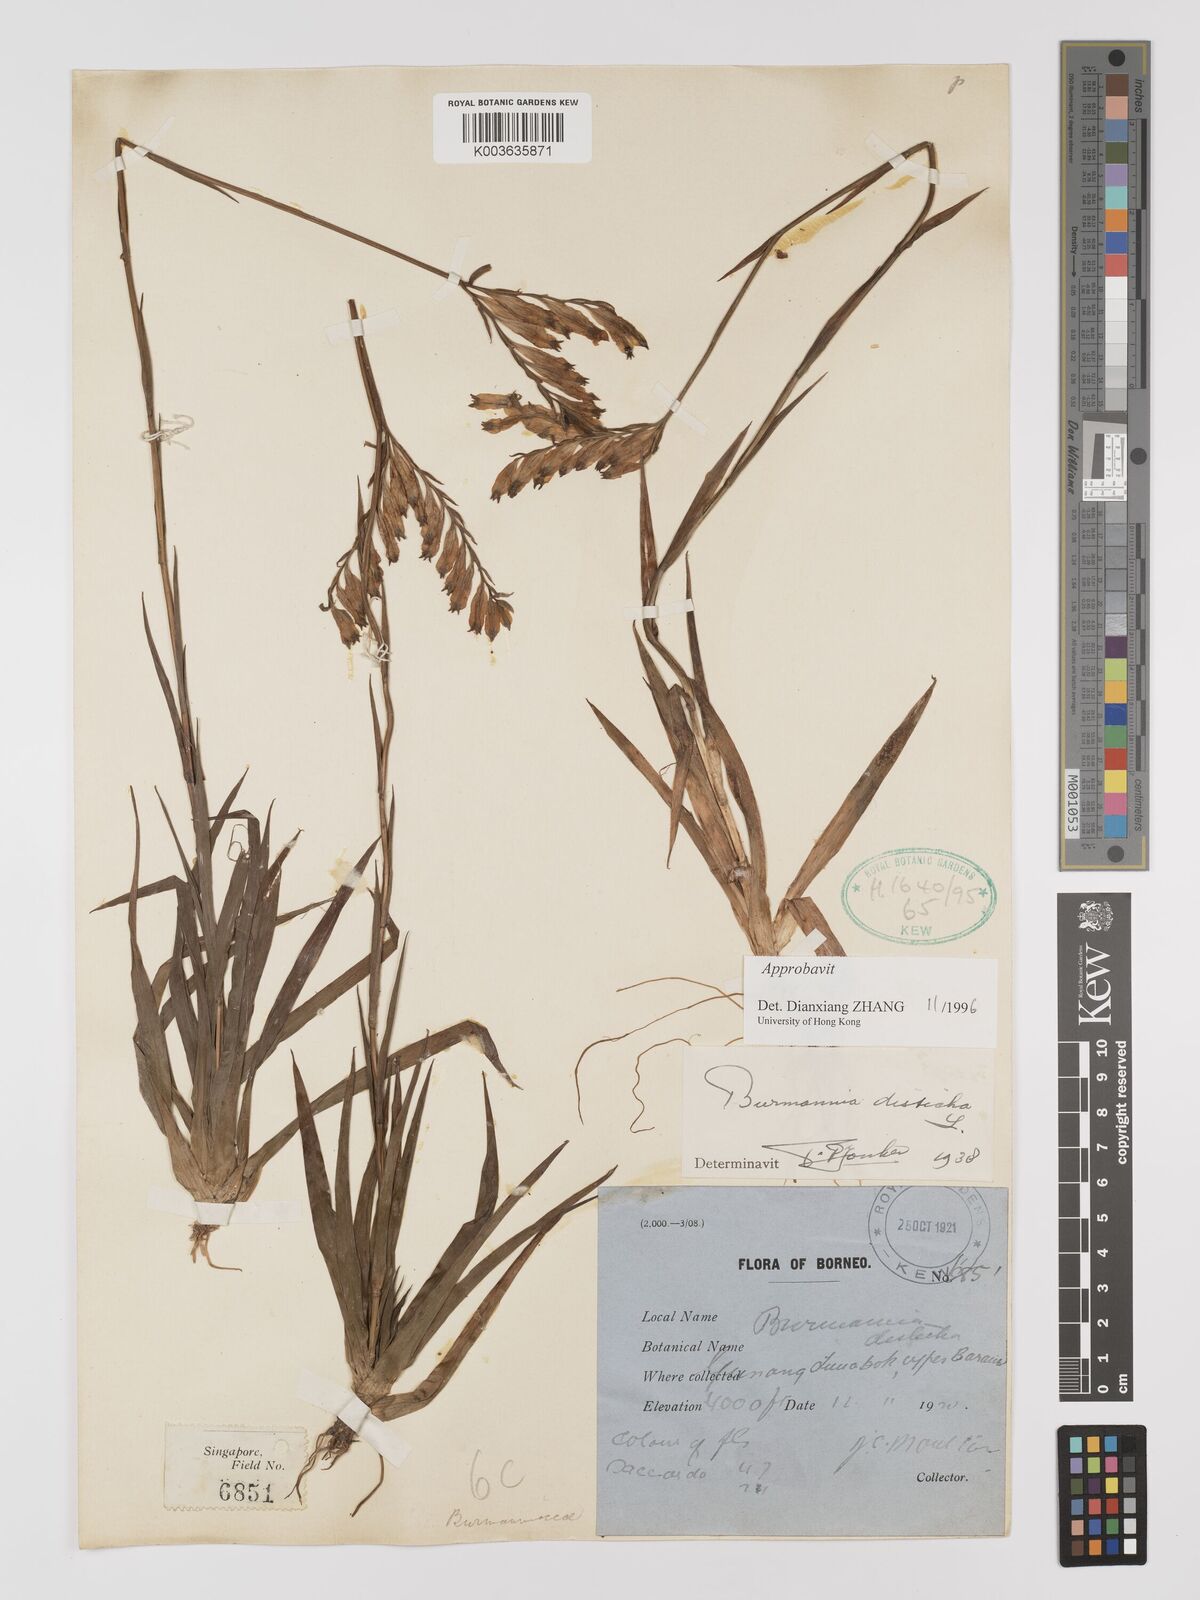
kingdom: Plantae
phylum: Tracheophyta
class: Liliopsida
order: Dioscoreales
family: Burmanniaceae
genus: Burmannia
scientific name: Burmannia disticha
